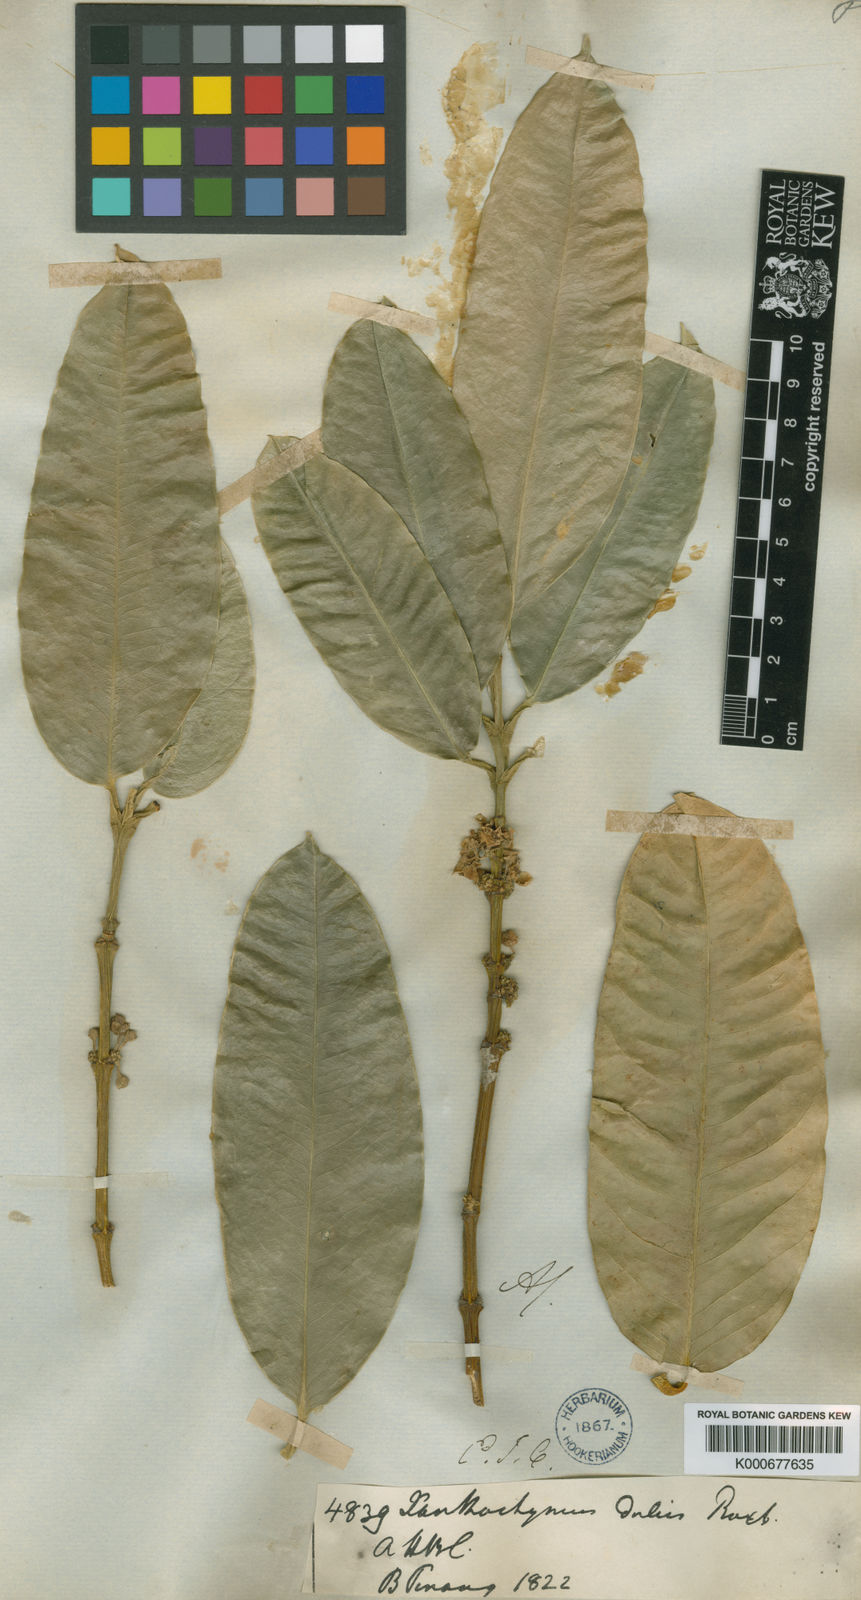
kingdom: Plantae
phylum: Tracheophyta
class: Magnoliopsida
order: Malpighiales
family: Clusiaceae
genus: Garcinia
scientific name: Garcinia dulcis
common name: Eggtree
